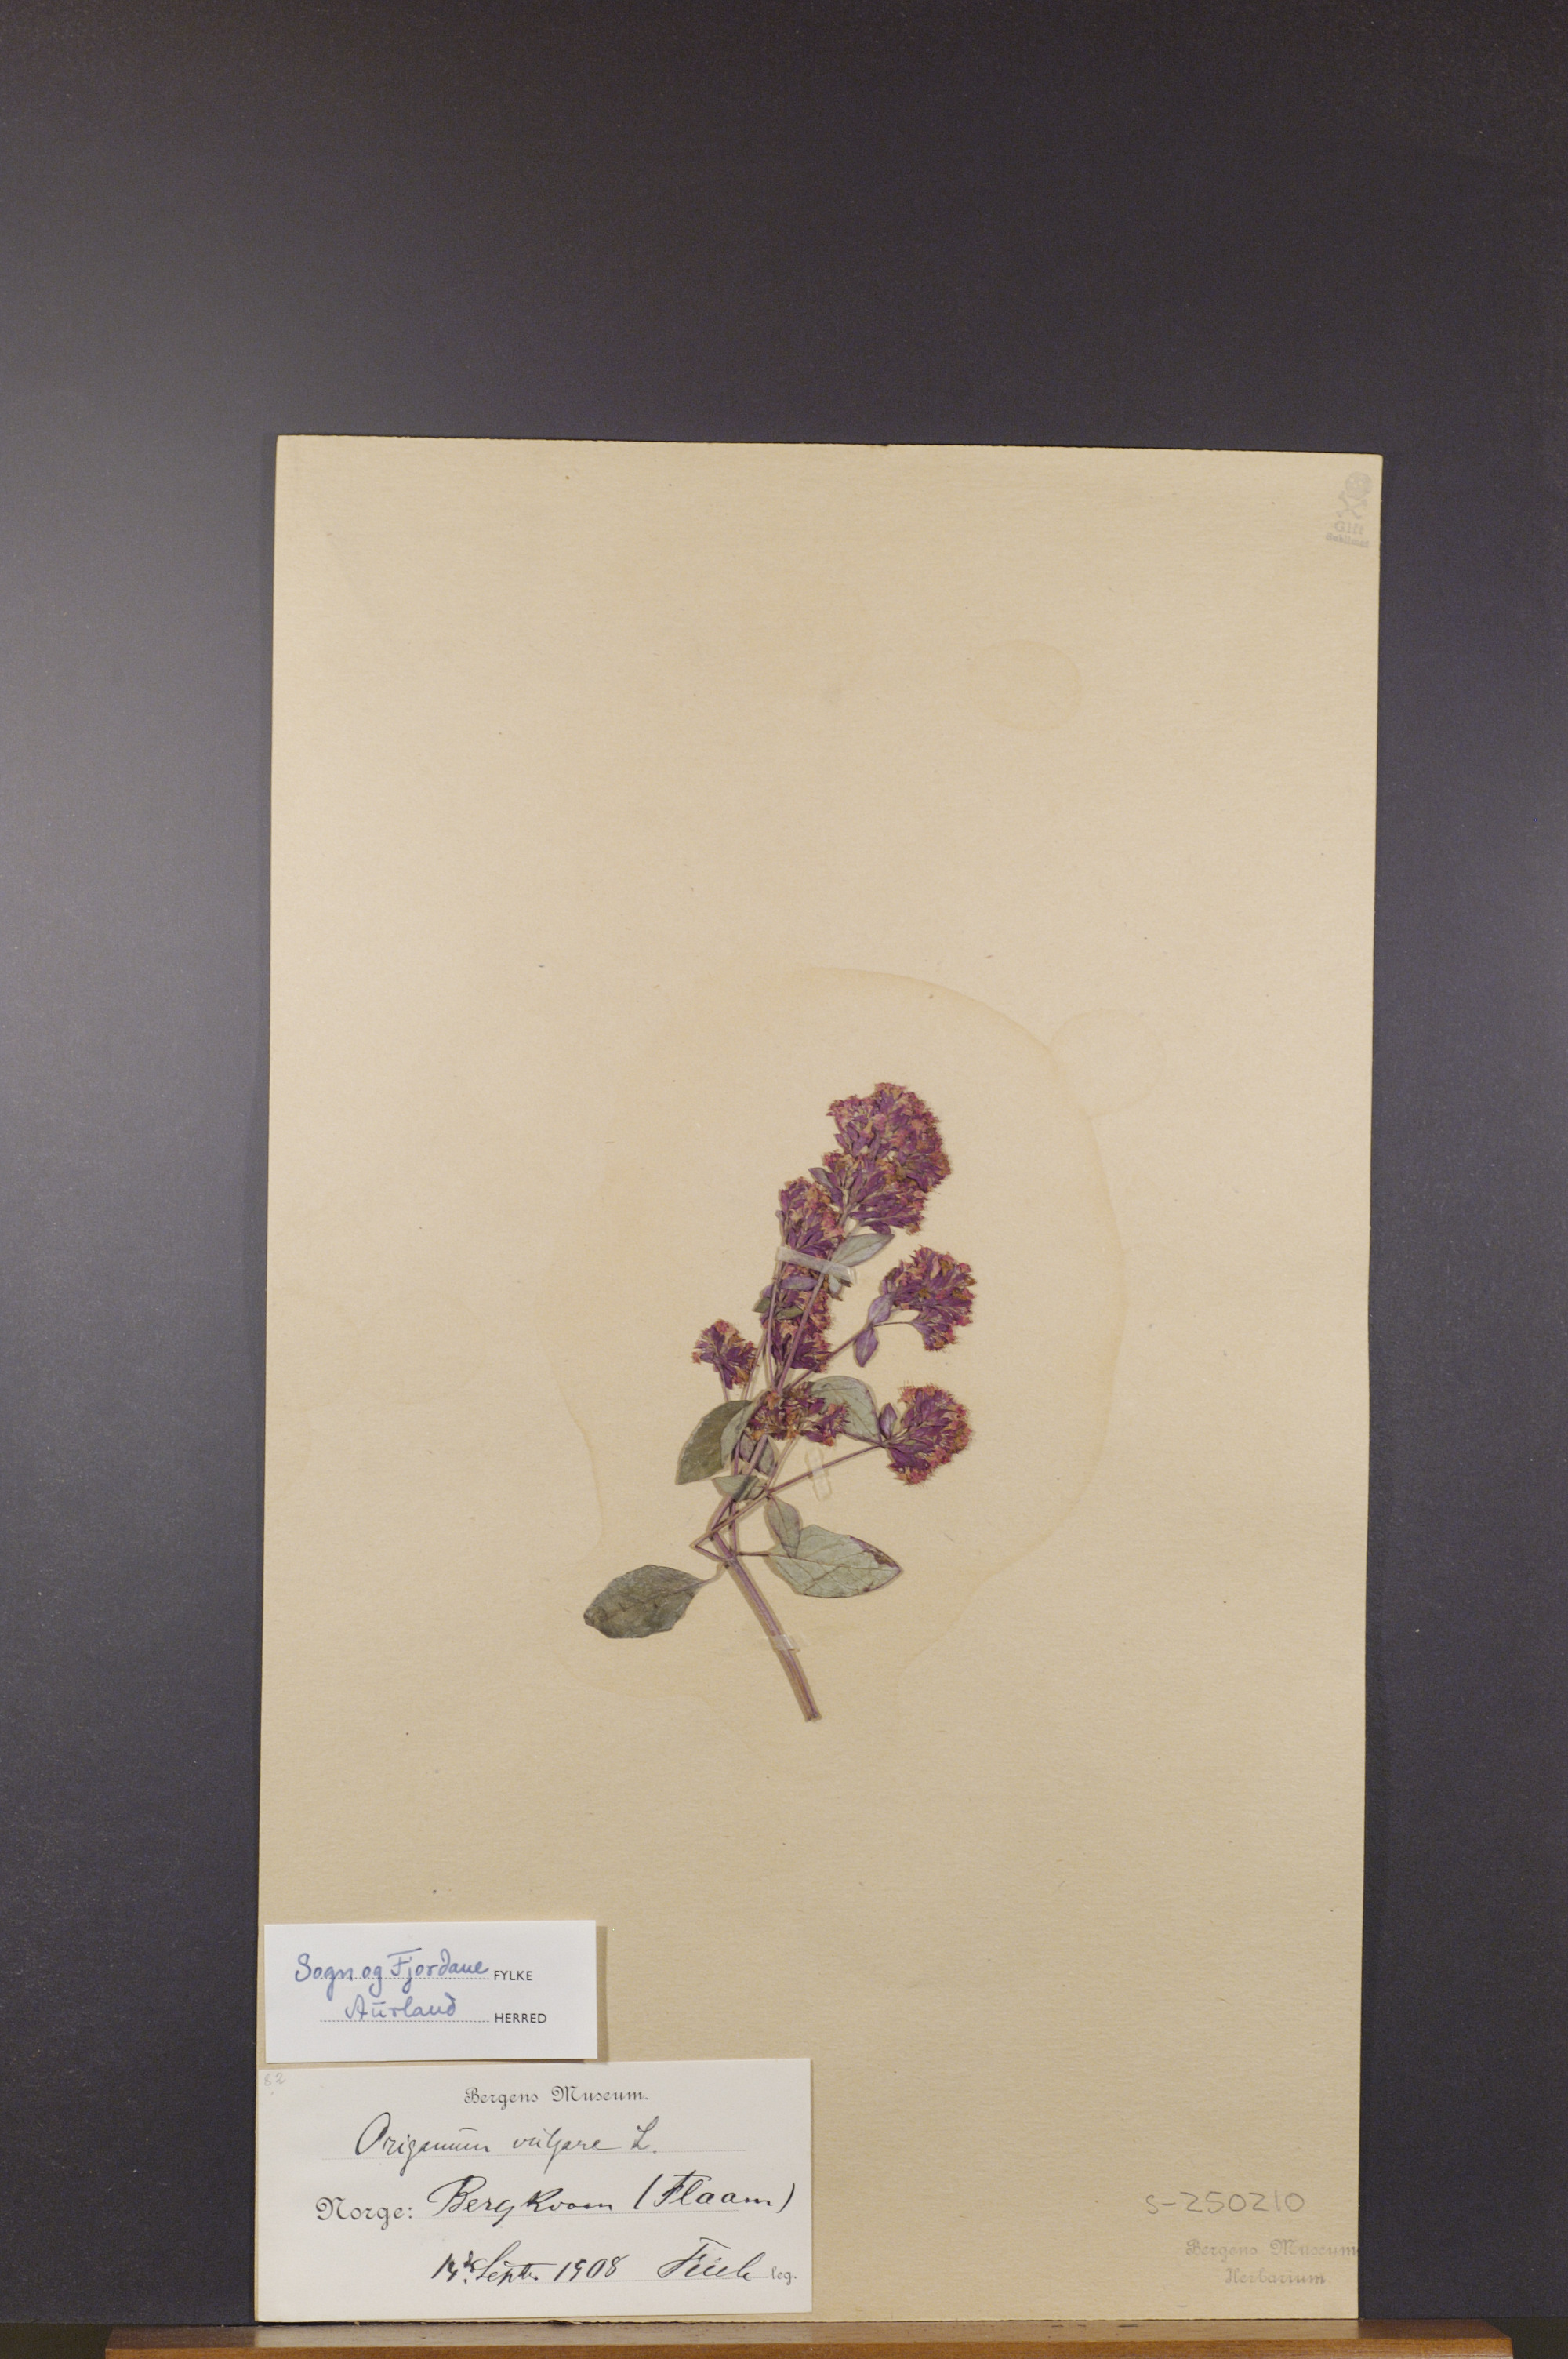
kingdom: Plantae
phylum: Tracheophyta
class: Magnoliopsida
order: Lamiales
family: Lamiaceae
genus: Origanum
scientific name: Origanum vulgare
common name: Wild marjoram
